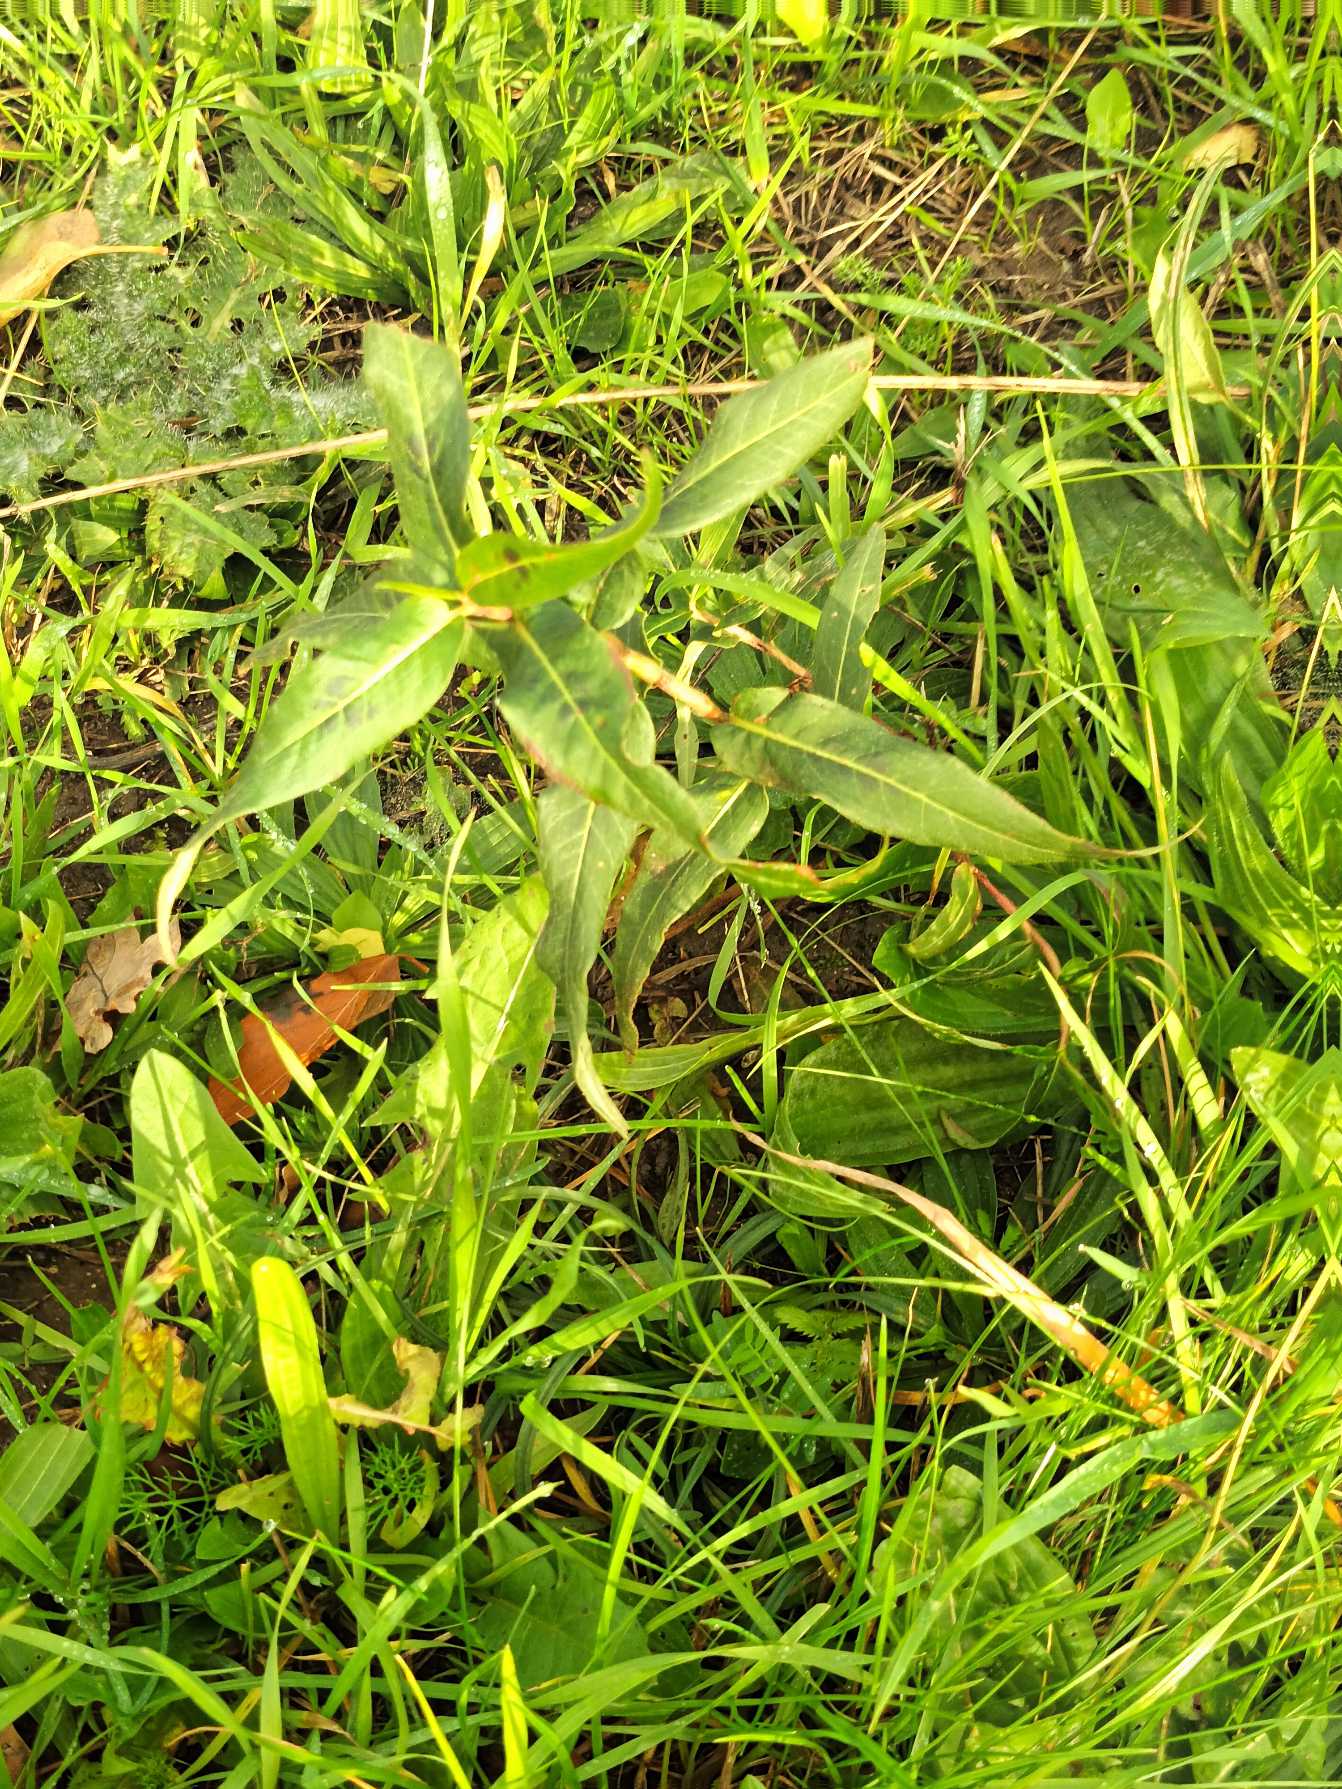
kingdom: Plantae
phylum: Tracheophyta
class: Magnoliopsida
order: Caryophyllales
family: Polygonaceae
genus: Persicaria
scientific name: Persicaria amphibia
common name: Vand-pileurt
